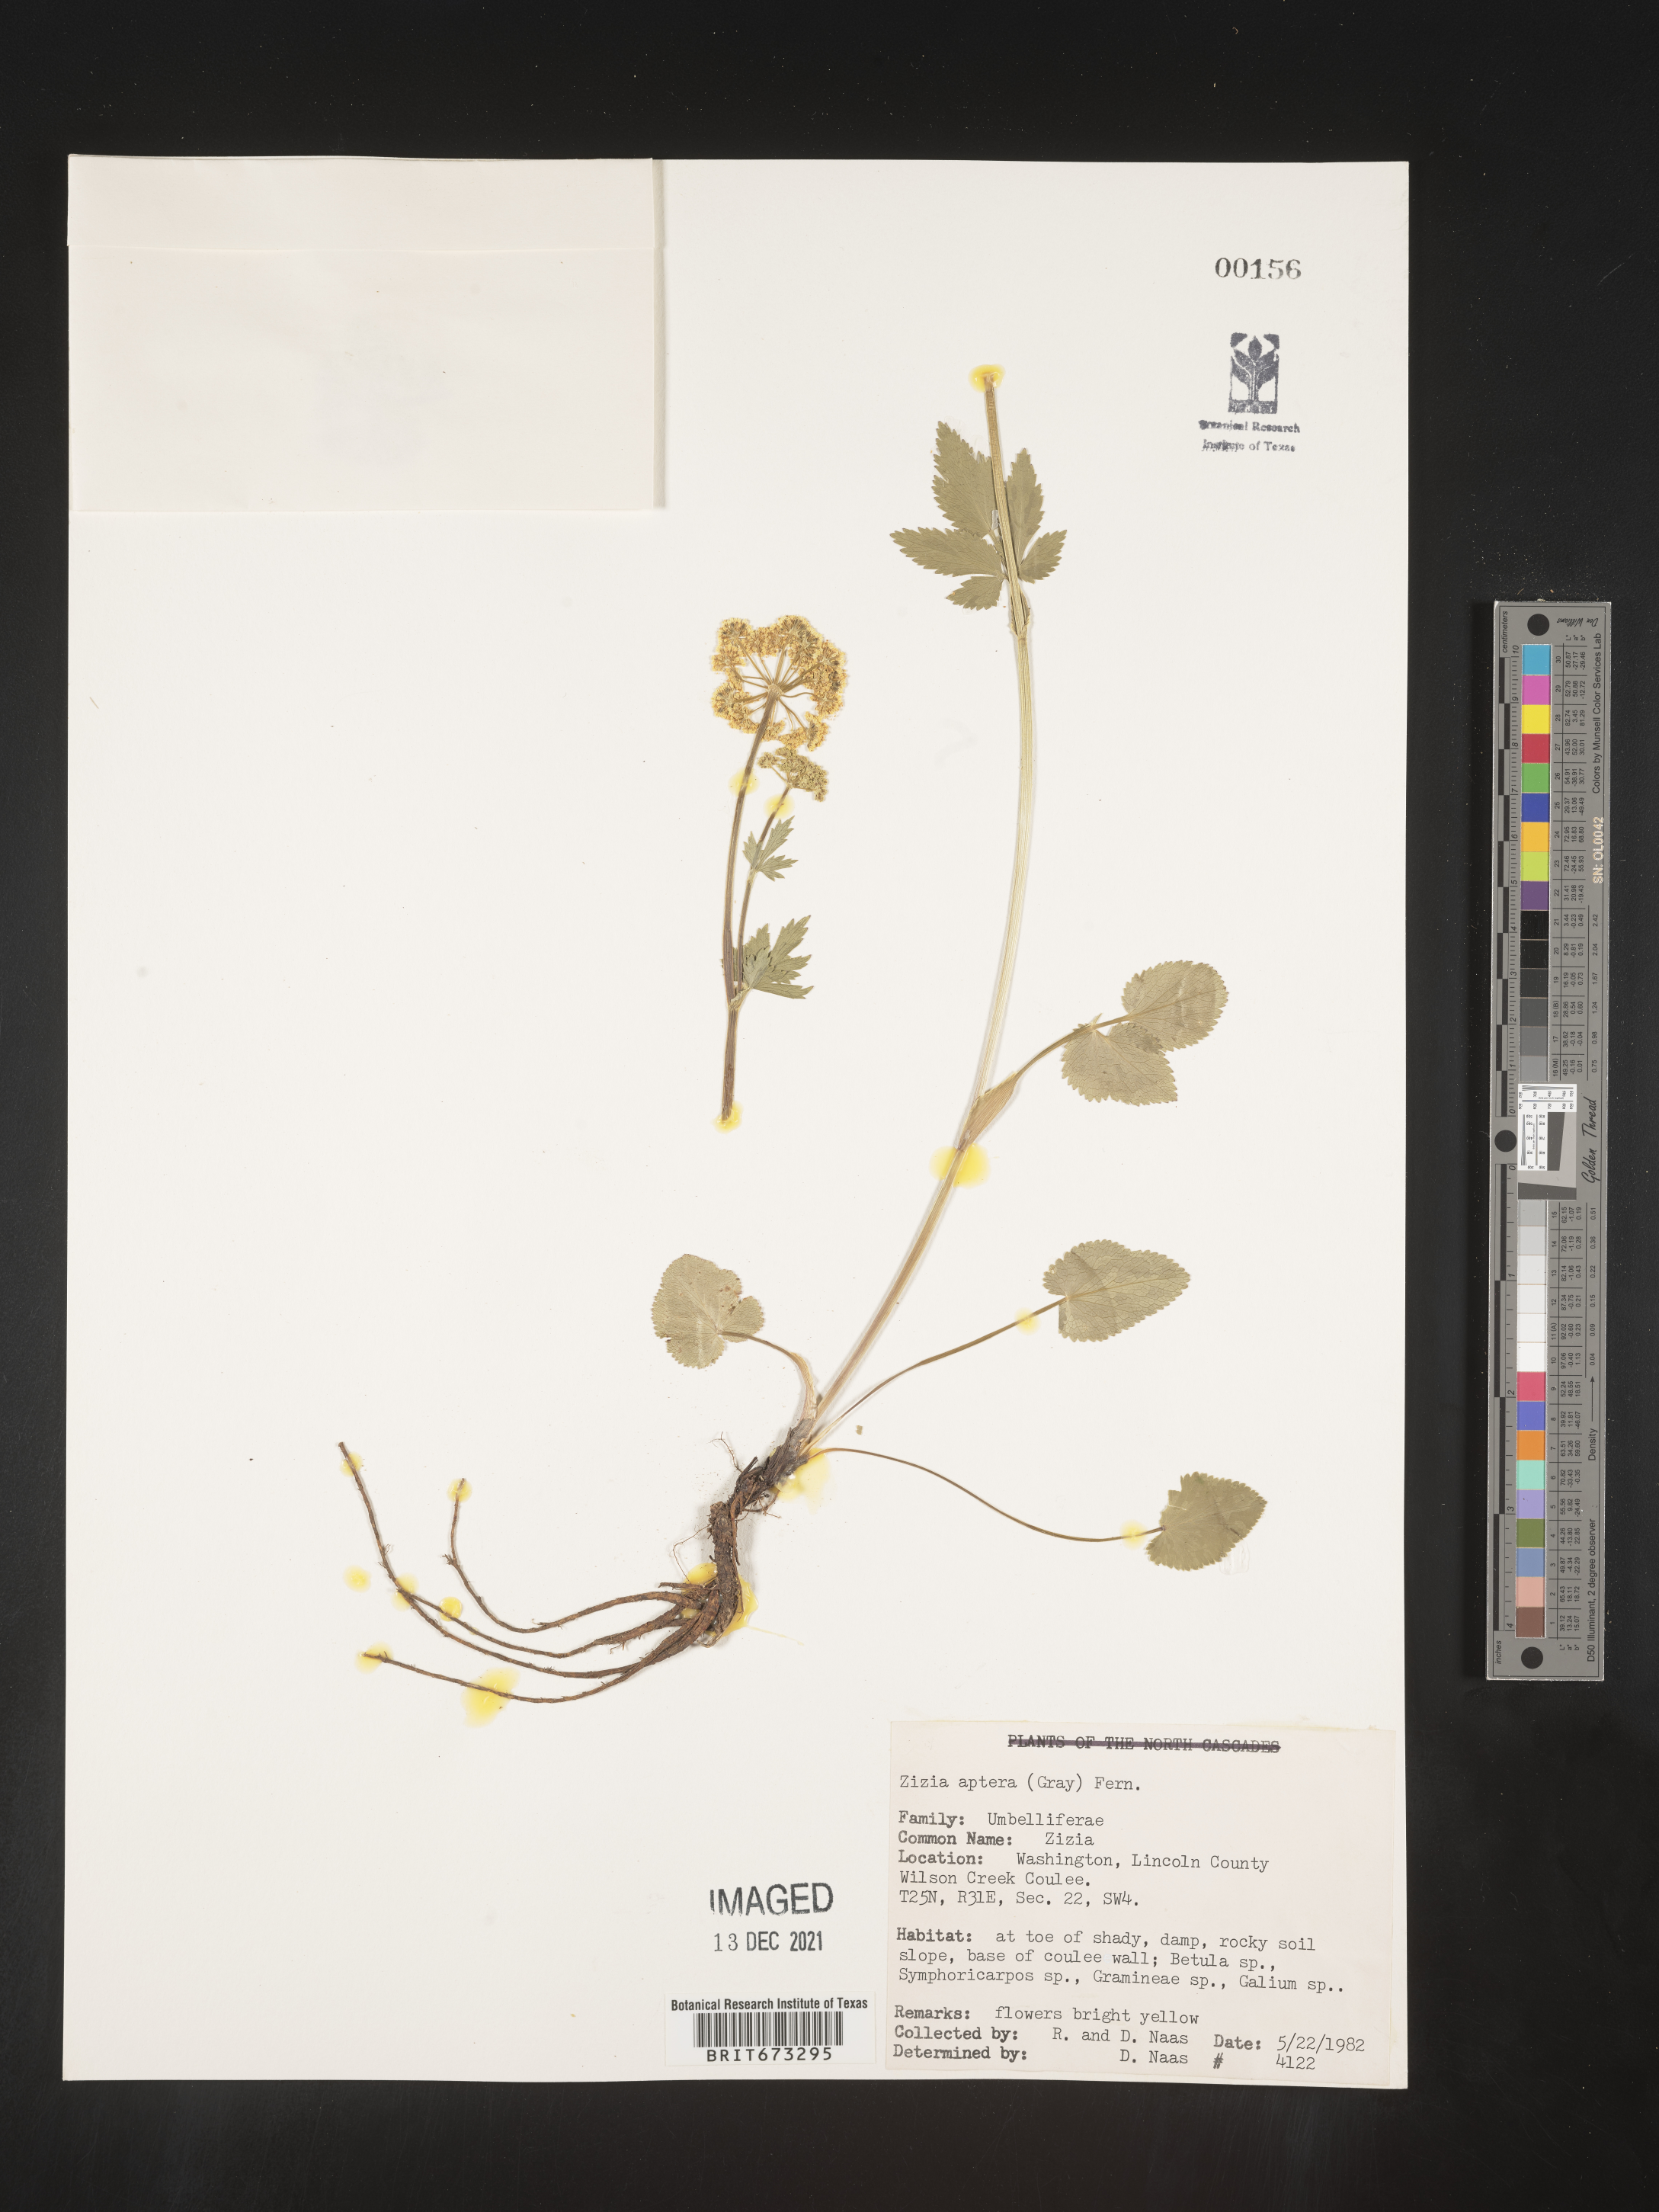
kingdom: Plantae
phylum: Tracheophyta
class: Magnoliopsida
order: Apiales
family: Apiaceae
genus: Zizia
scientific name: Zizia aptera
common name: Heart-leaved alexanders
